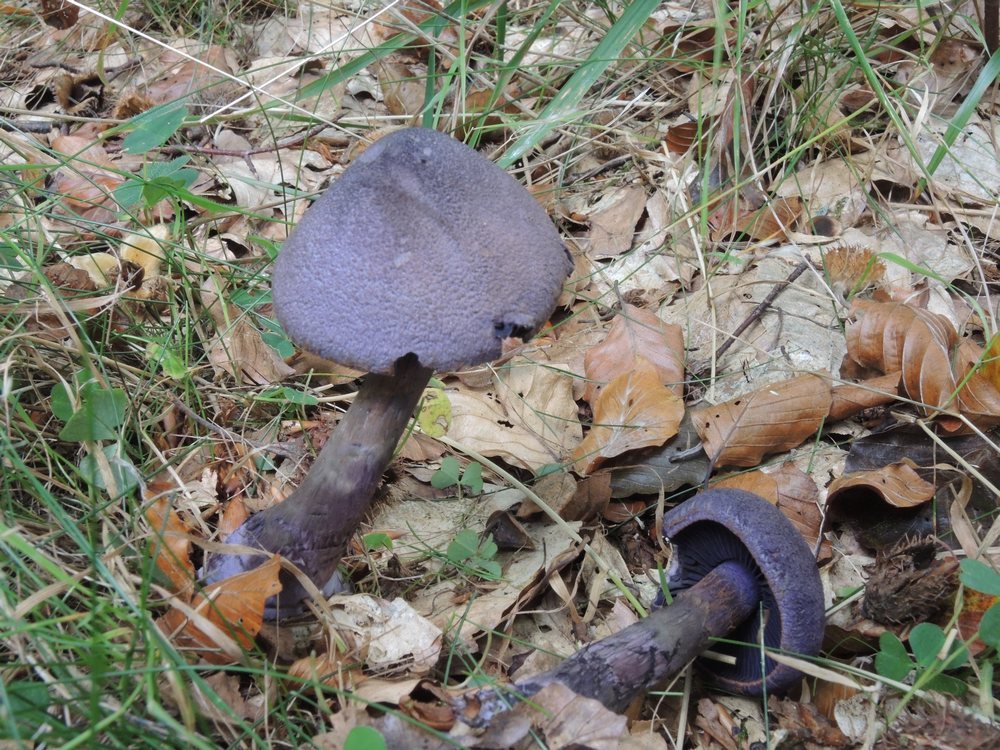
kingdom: Fungi
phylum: Basidiomycota
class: Agaricomycetes
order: Agaricales
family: Cortinariaceae
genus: Cortinarius
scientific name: Cortinarius violaceus
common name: mørkviolet slørhat
